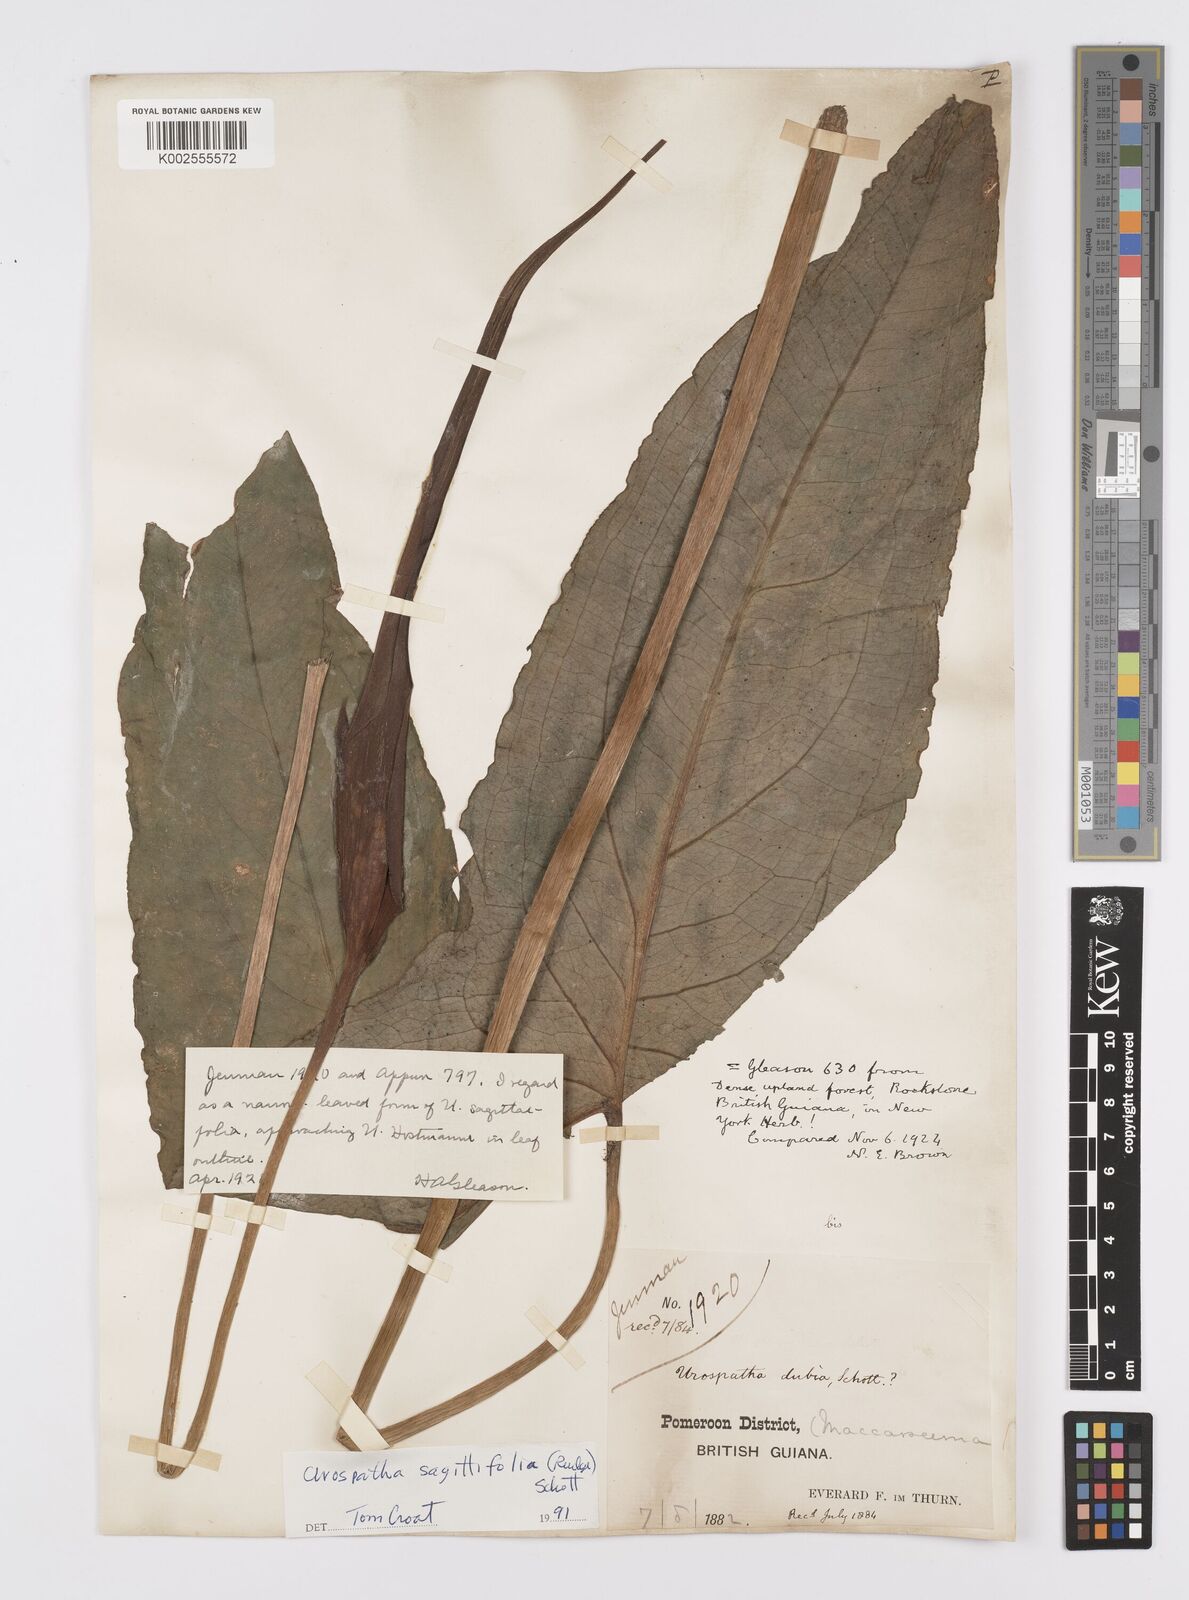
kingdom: Plantae
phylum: Tracheophyta
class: Liliopsida
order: Alismatales
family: Araceae
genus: Urospatha
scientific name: Urospatha sagittifolia
